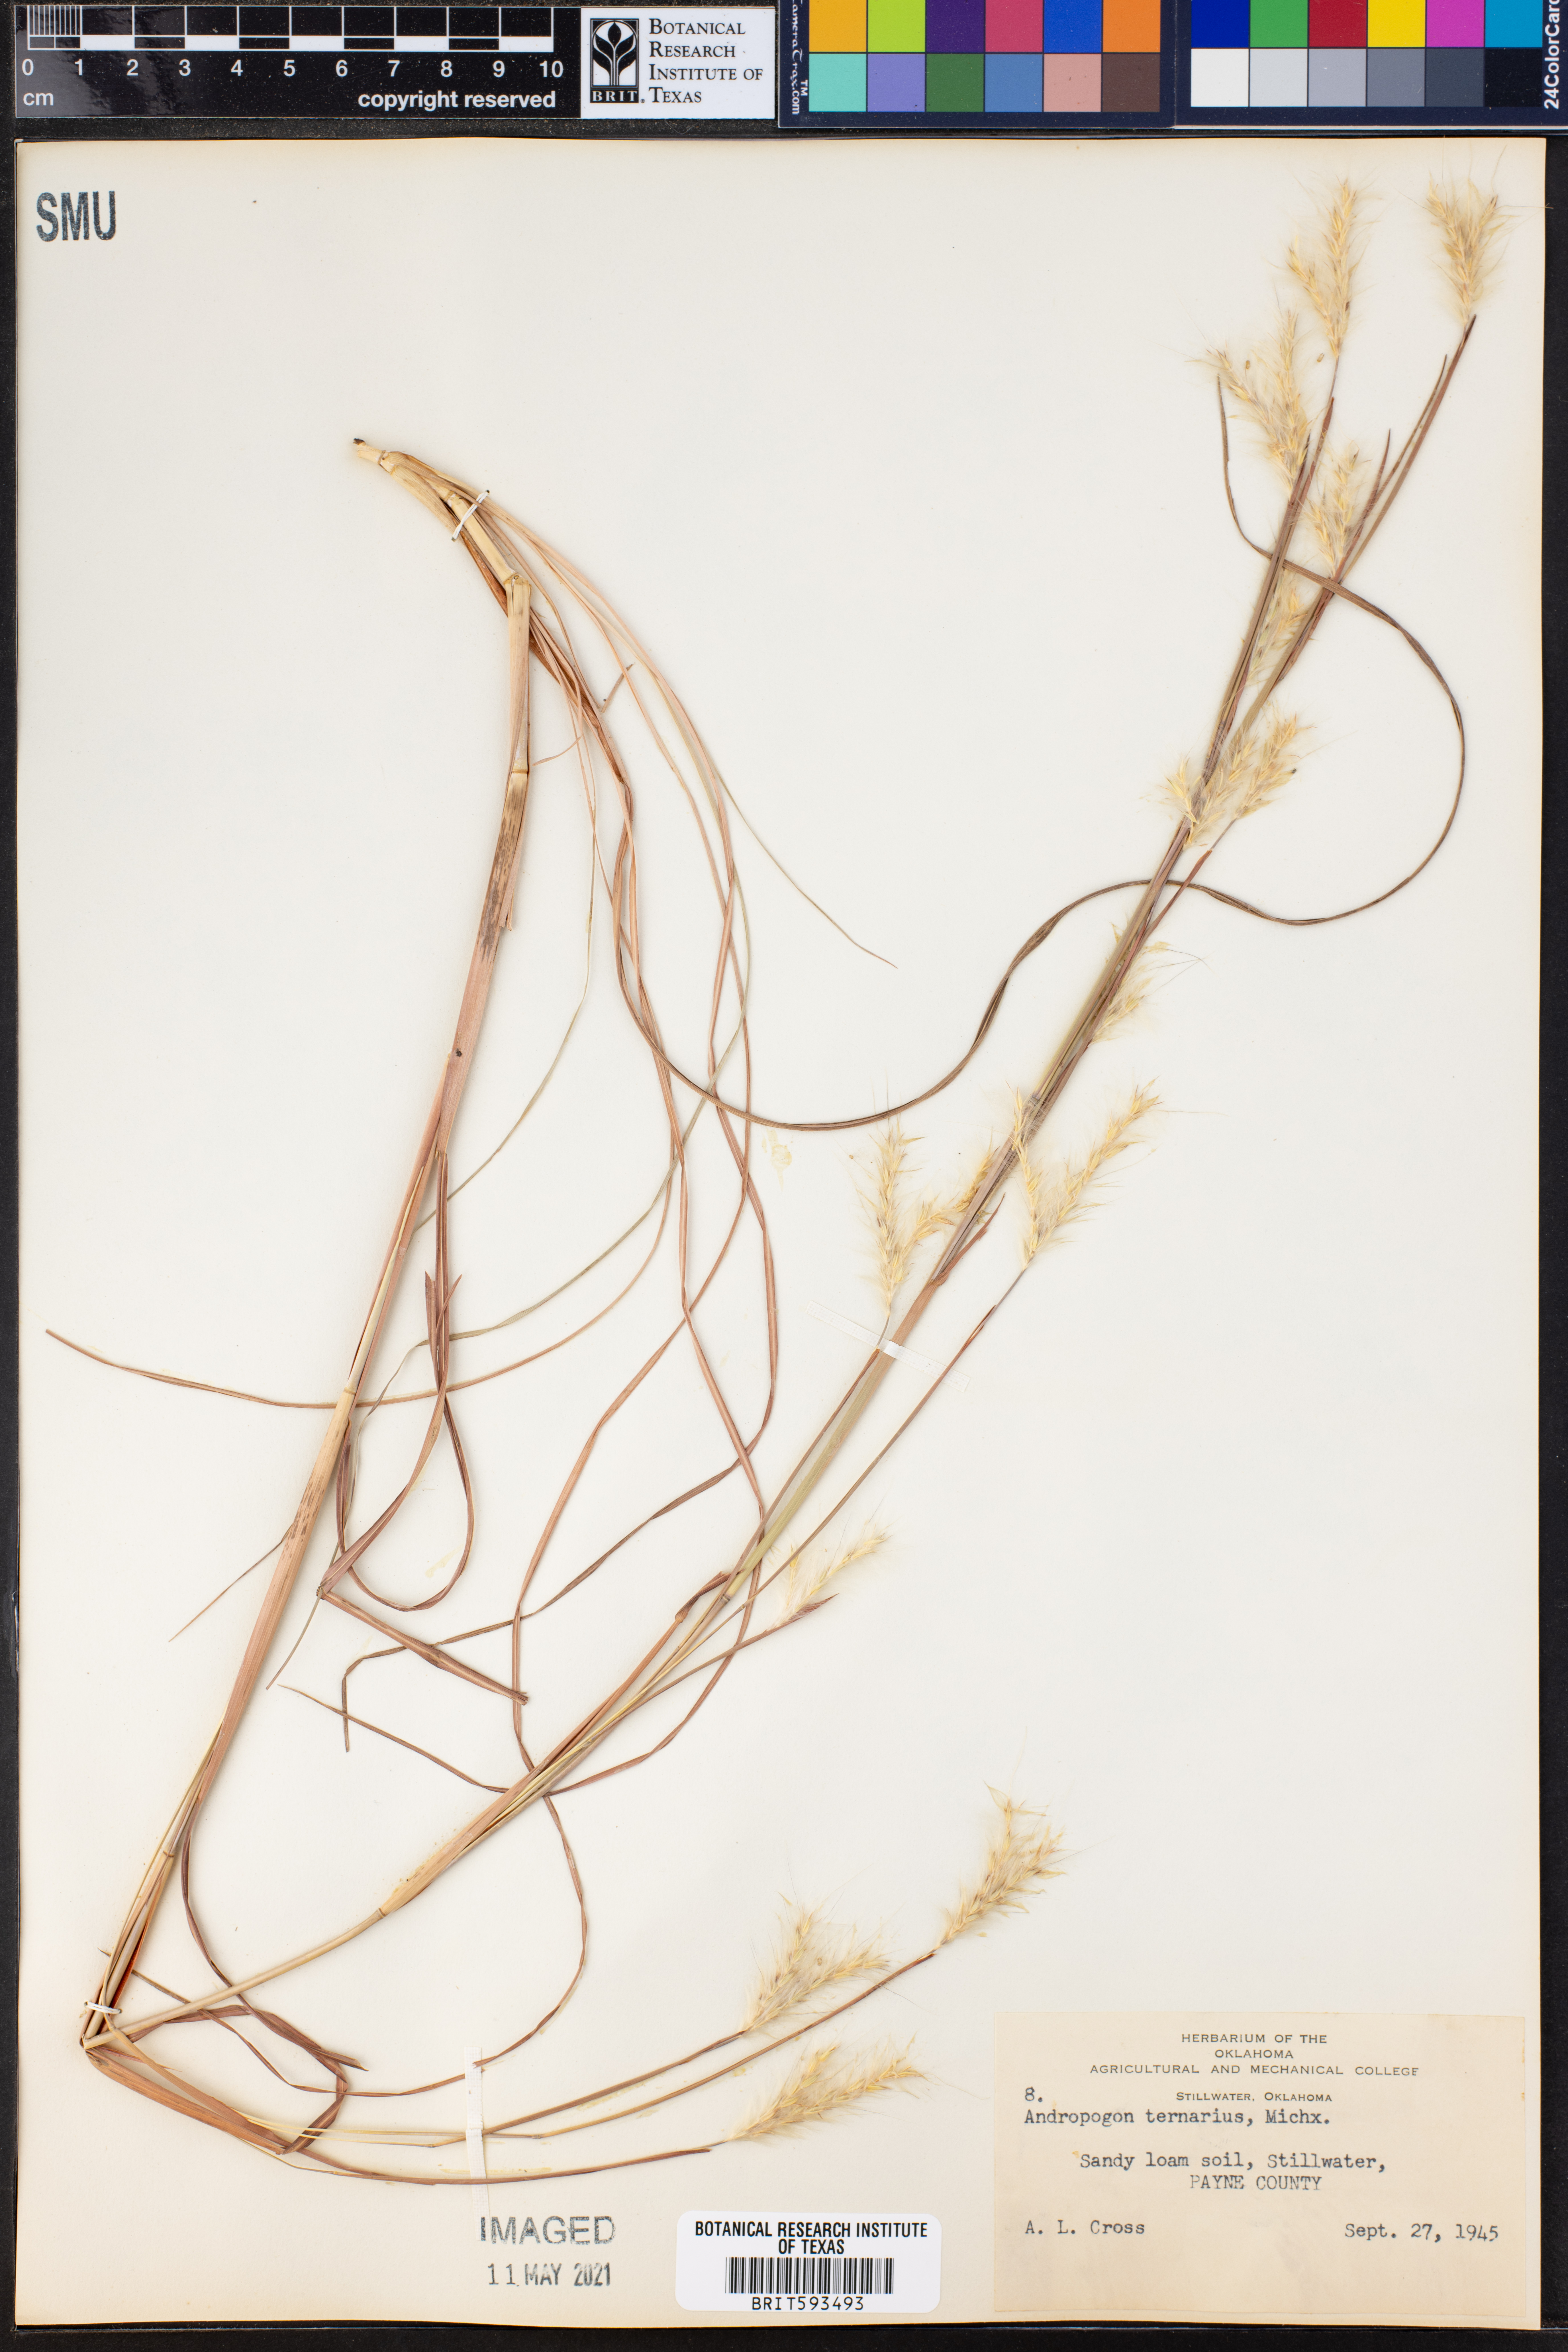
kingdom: Plantae
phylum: Tracheophyta
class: Liliopsida
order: Poales
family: Poaceae
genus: Andropogon
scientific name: Andropogon ternarius
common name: Split bluestem
